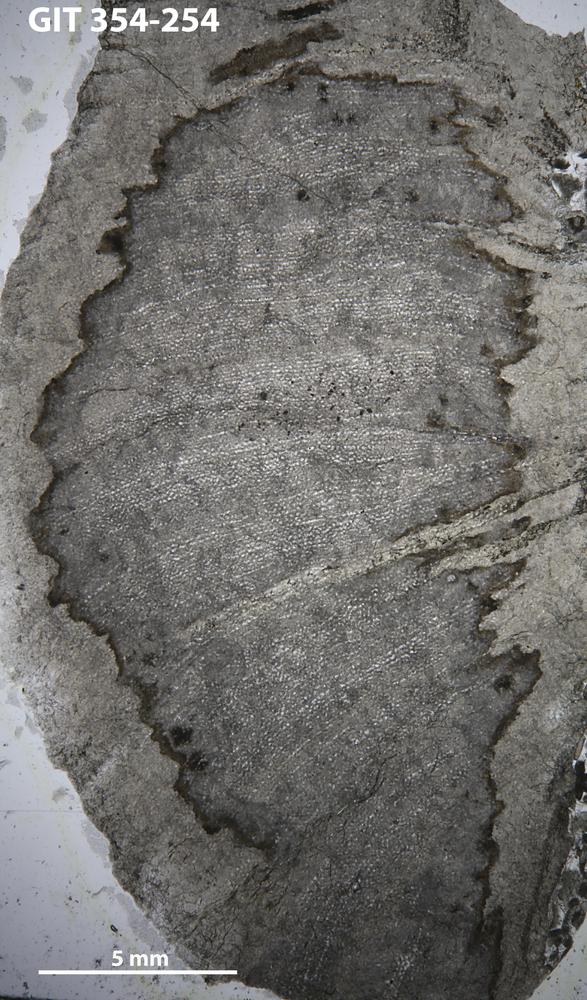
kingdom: Animalia
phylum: Porifera
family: Ecclimadictyidae
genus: Ecclimadictyon
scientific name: Ecclimadictyon Clathrodictyon microvesiculosum
